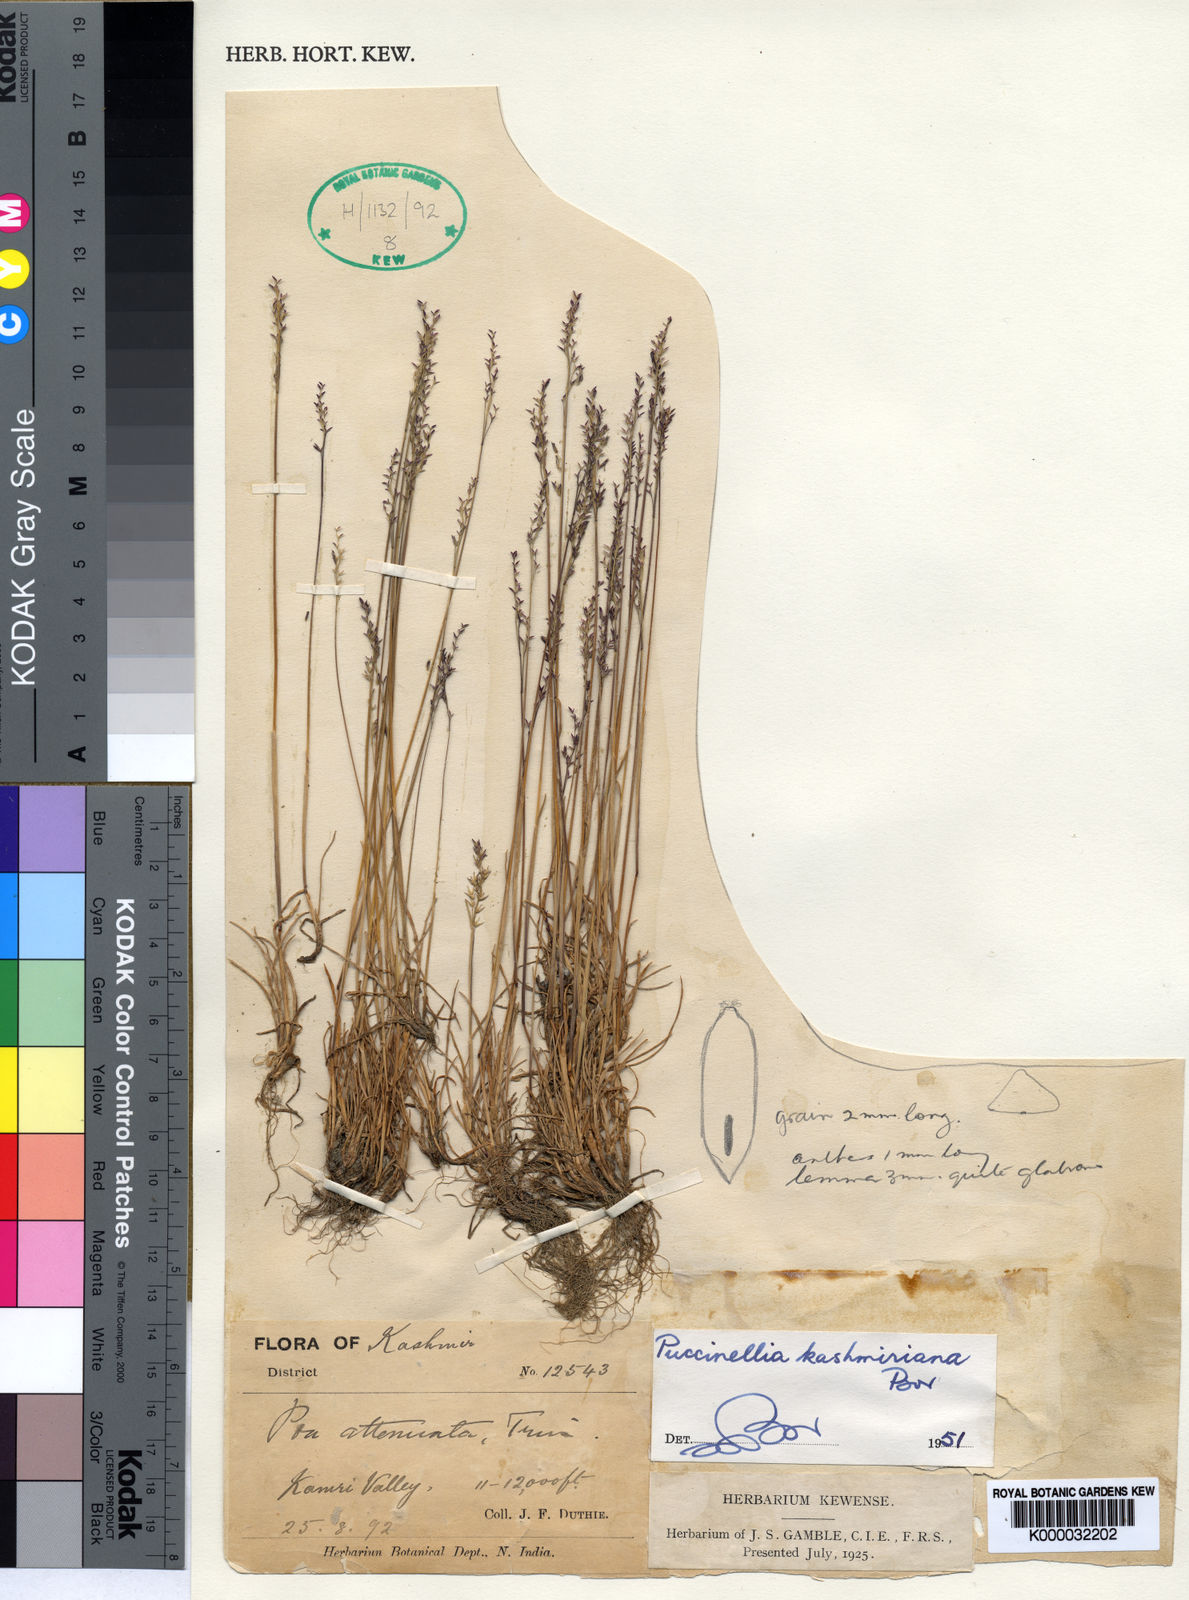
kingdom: Plantae
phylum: Tracheophyta
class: Liliopsida
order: Poales
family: Poaceae
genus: Puccinellia
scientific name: Puccinellia kashmiriana
